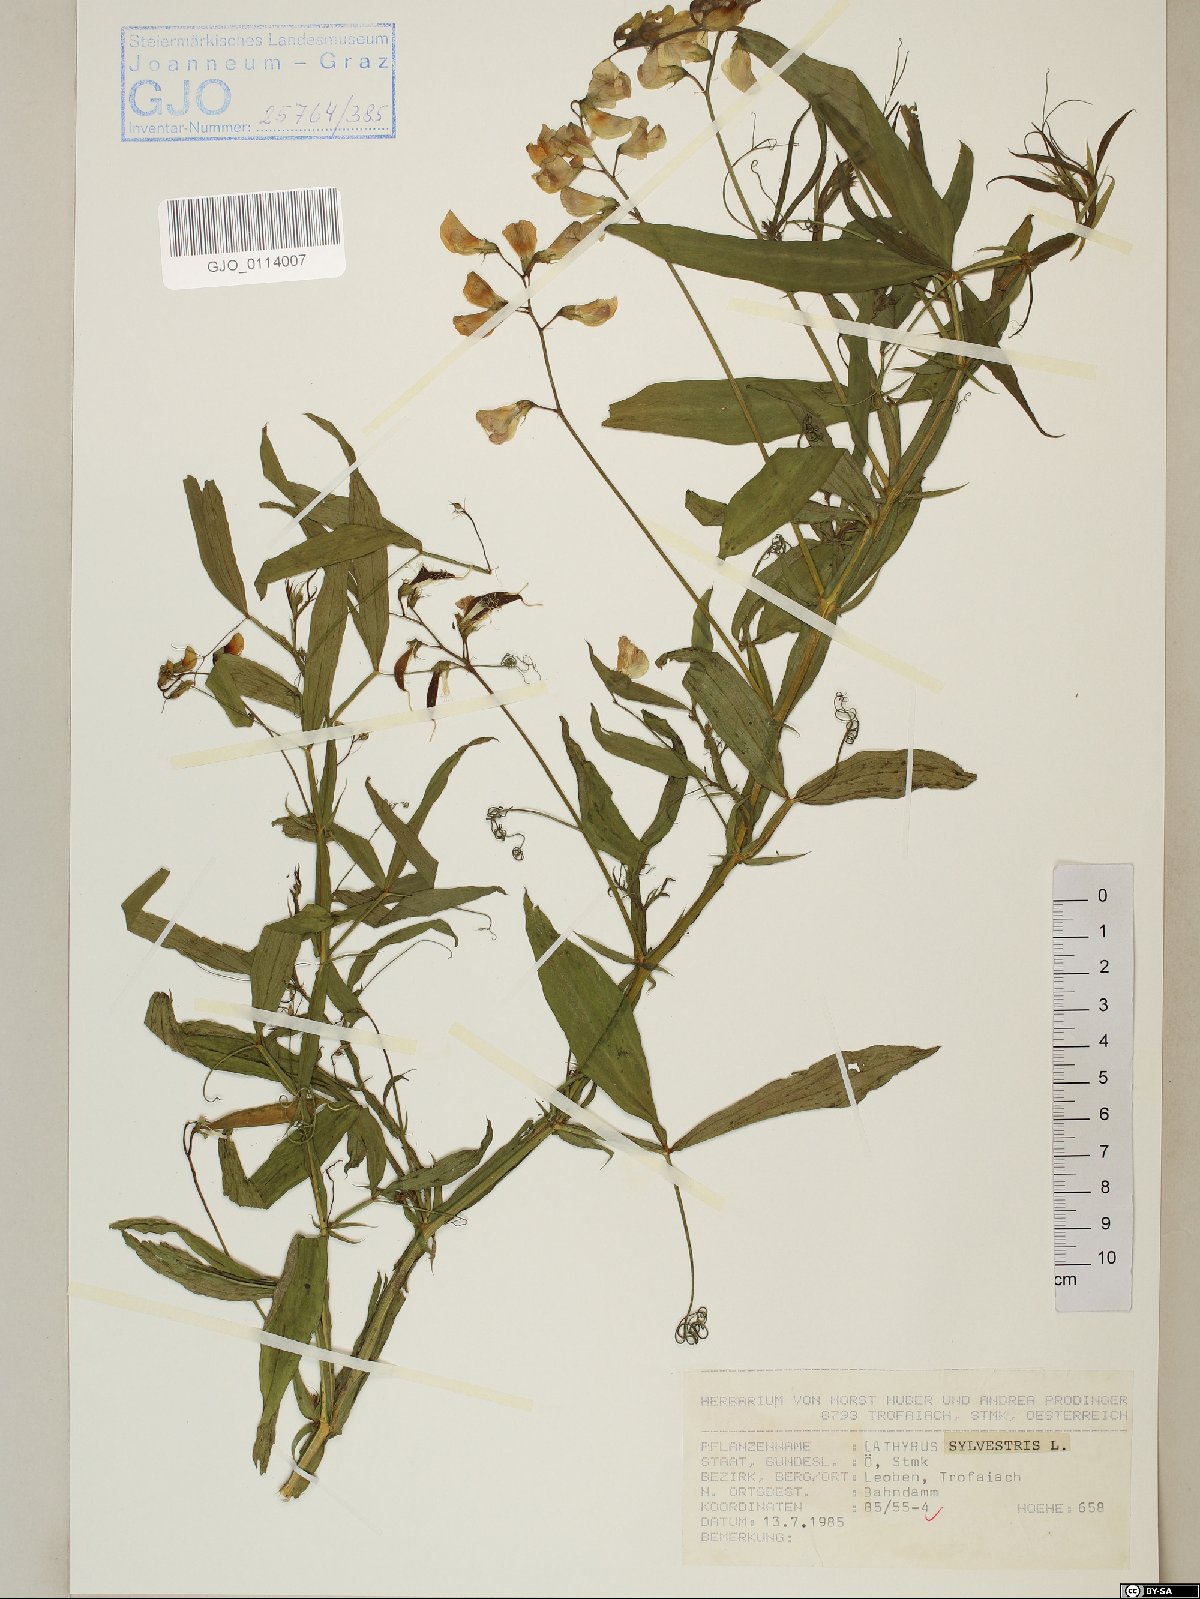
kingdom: Plantae
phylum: Tracheophyta
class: Magnoliopsida
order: Fabales
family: Fabaceae
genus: Lathyrus
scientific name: Lathyrus sylvestris
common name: Flat pea
